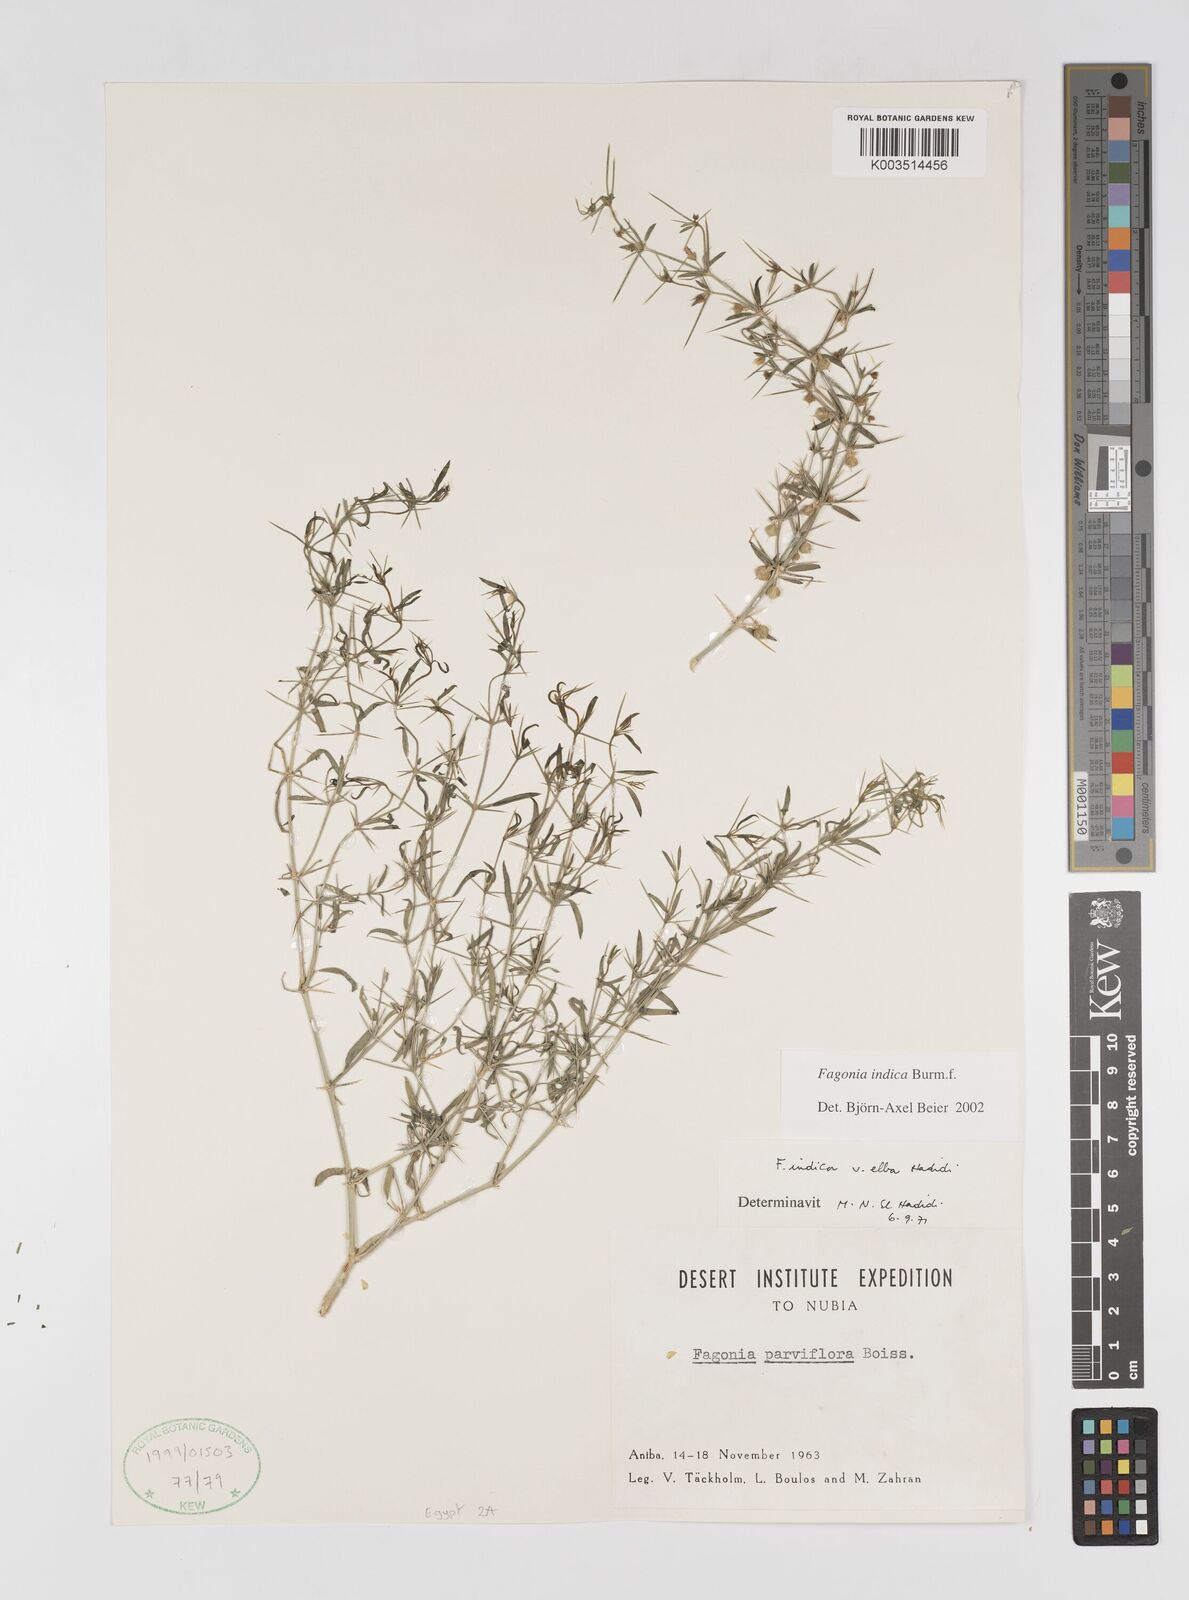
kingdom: Plantae
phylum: Tracheophyta
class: Magnoliopsida
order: Zygophyllales
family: Zygophyllaceae
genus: Fagonia
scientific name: Fagonia indica
